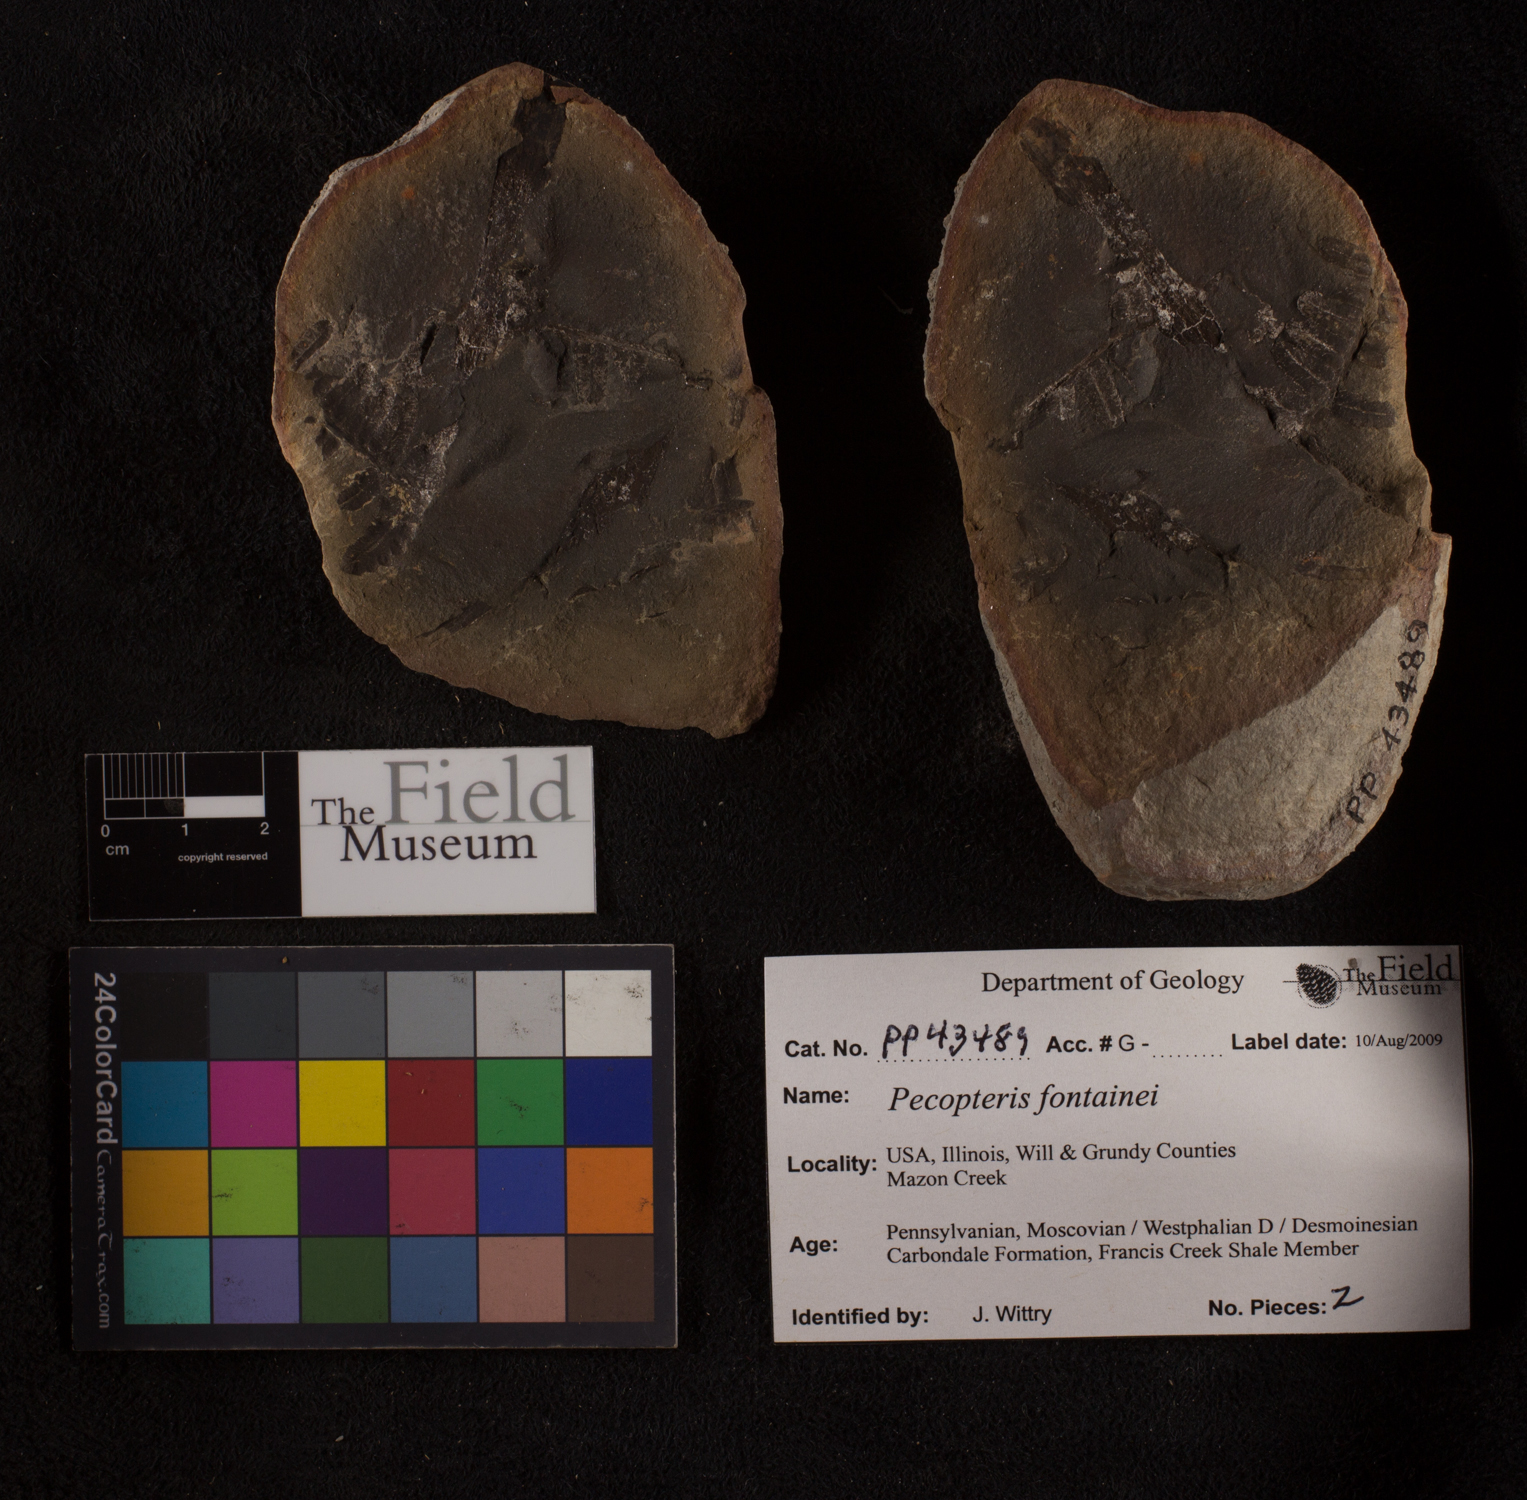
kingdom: Plantae
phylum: Tracheophyta
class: Polypodiopsida
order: Marattiales
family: Asterothecaceae
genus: Pecopteris
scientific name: Pecopteris
